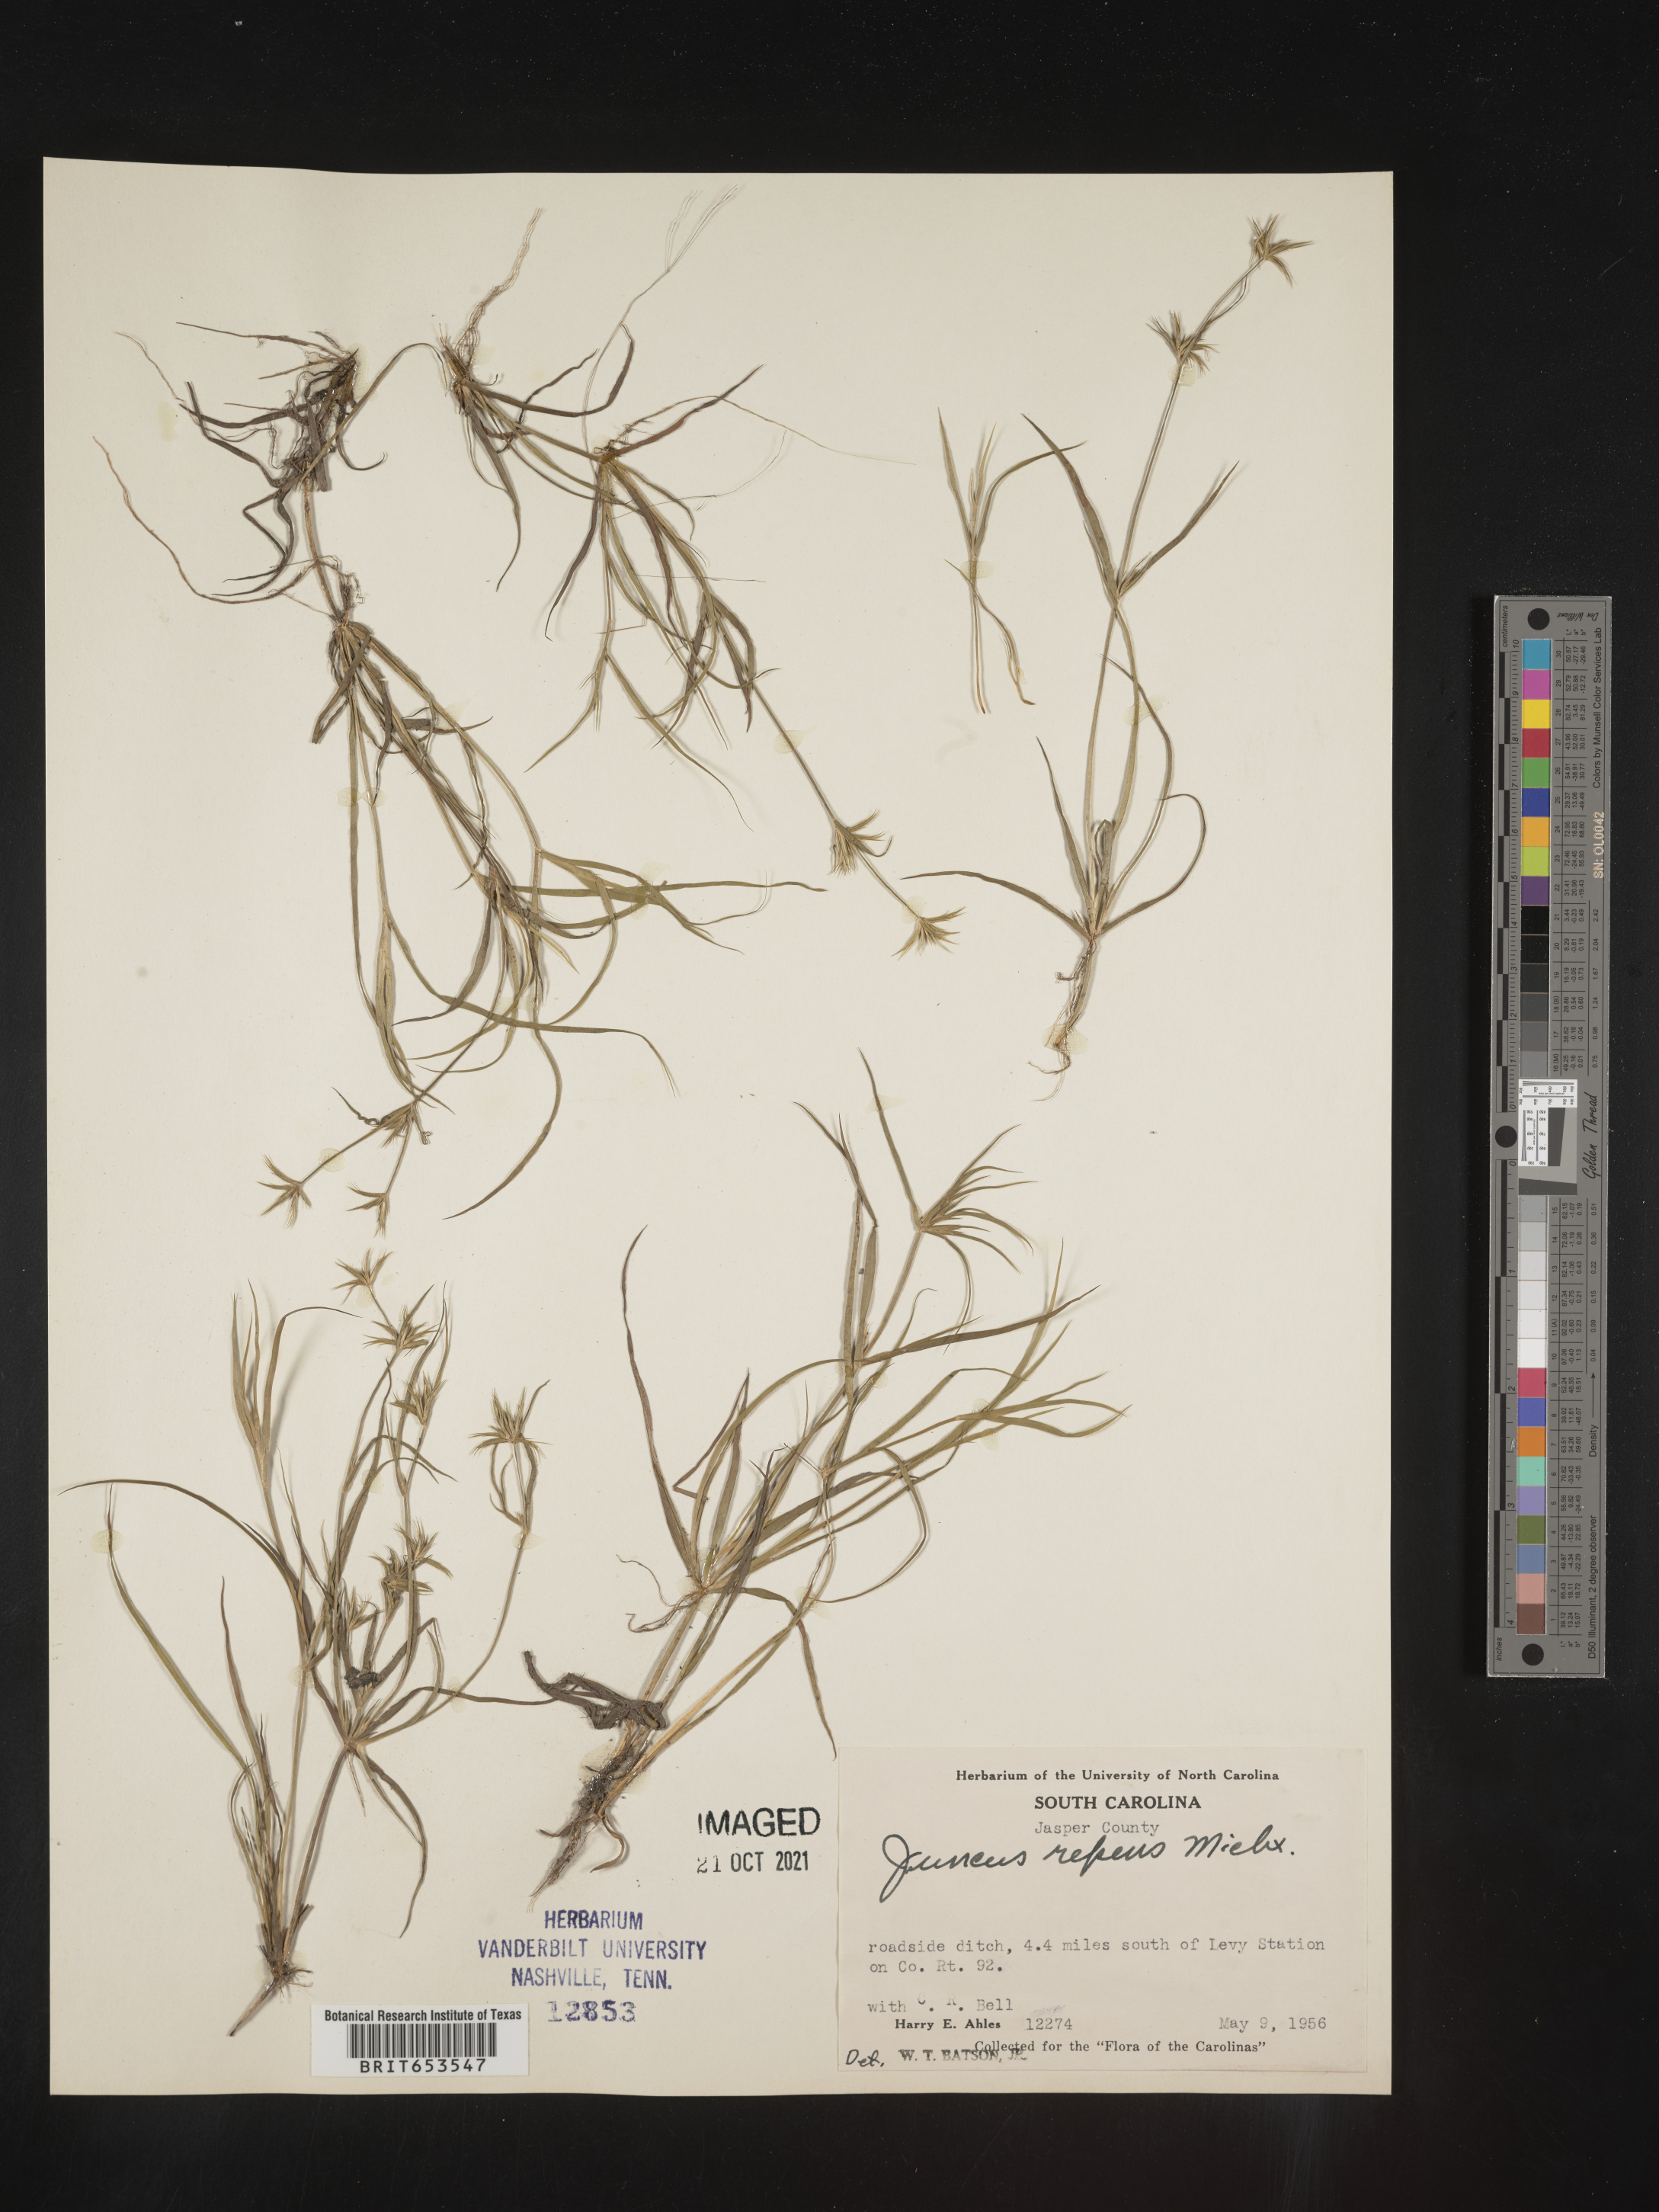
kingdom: Plantae
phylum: Tracheophyta
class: Liliopsida
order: Poales
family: Juncaceae
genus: Juncus
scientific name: Juncus repens
